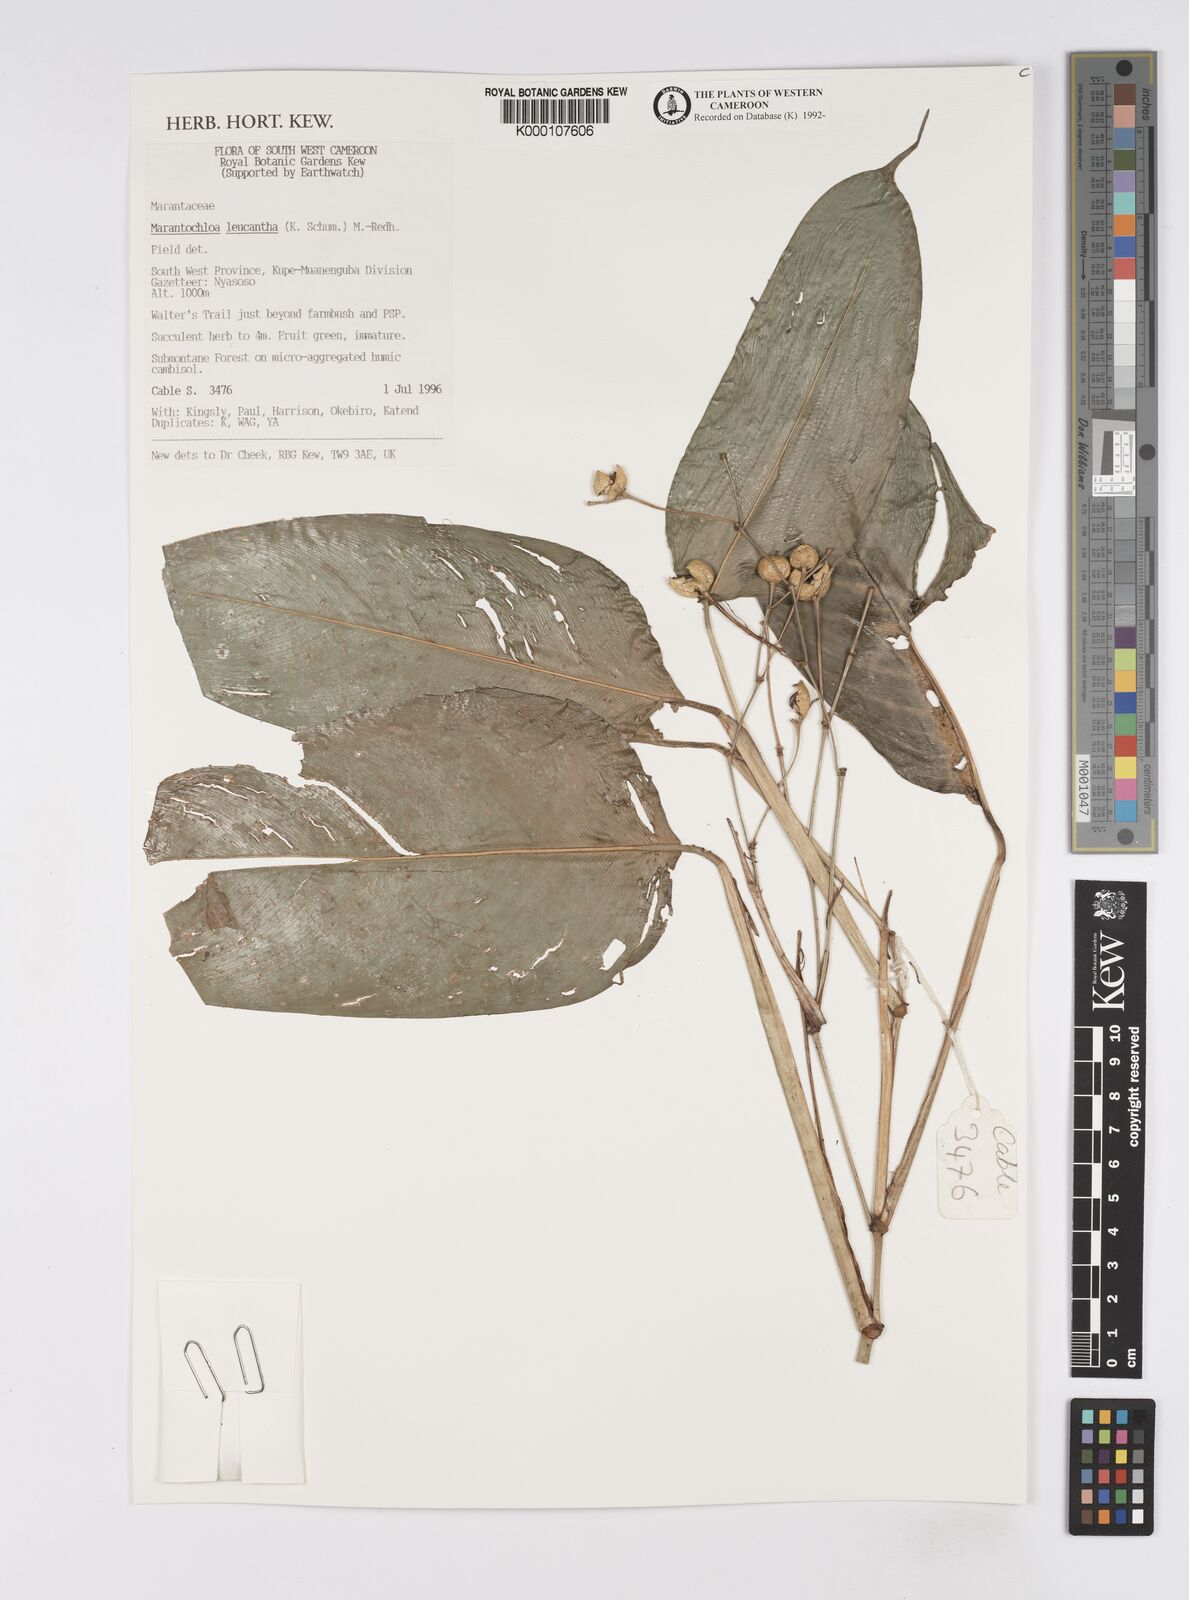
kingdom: Plantae
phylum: Tracheophyta
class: Liliopsida
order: Zingiberales
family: Marantaceae
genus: Marantochloa
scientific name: Marantochloa leucantha
